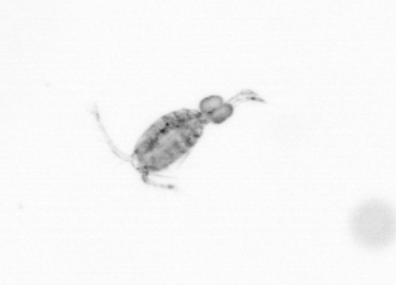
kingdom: Animalia
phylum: Arthropoda
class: Copepoda
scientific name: Copepoda
